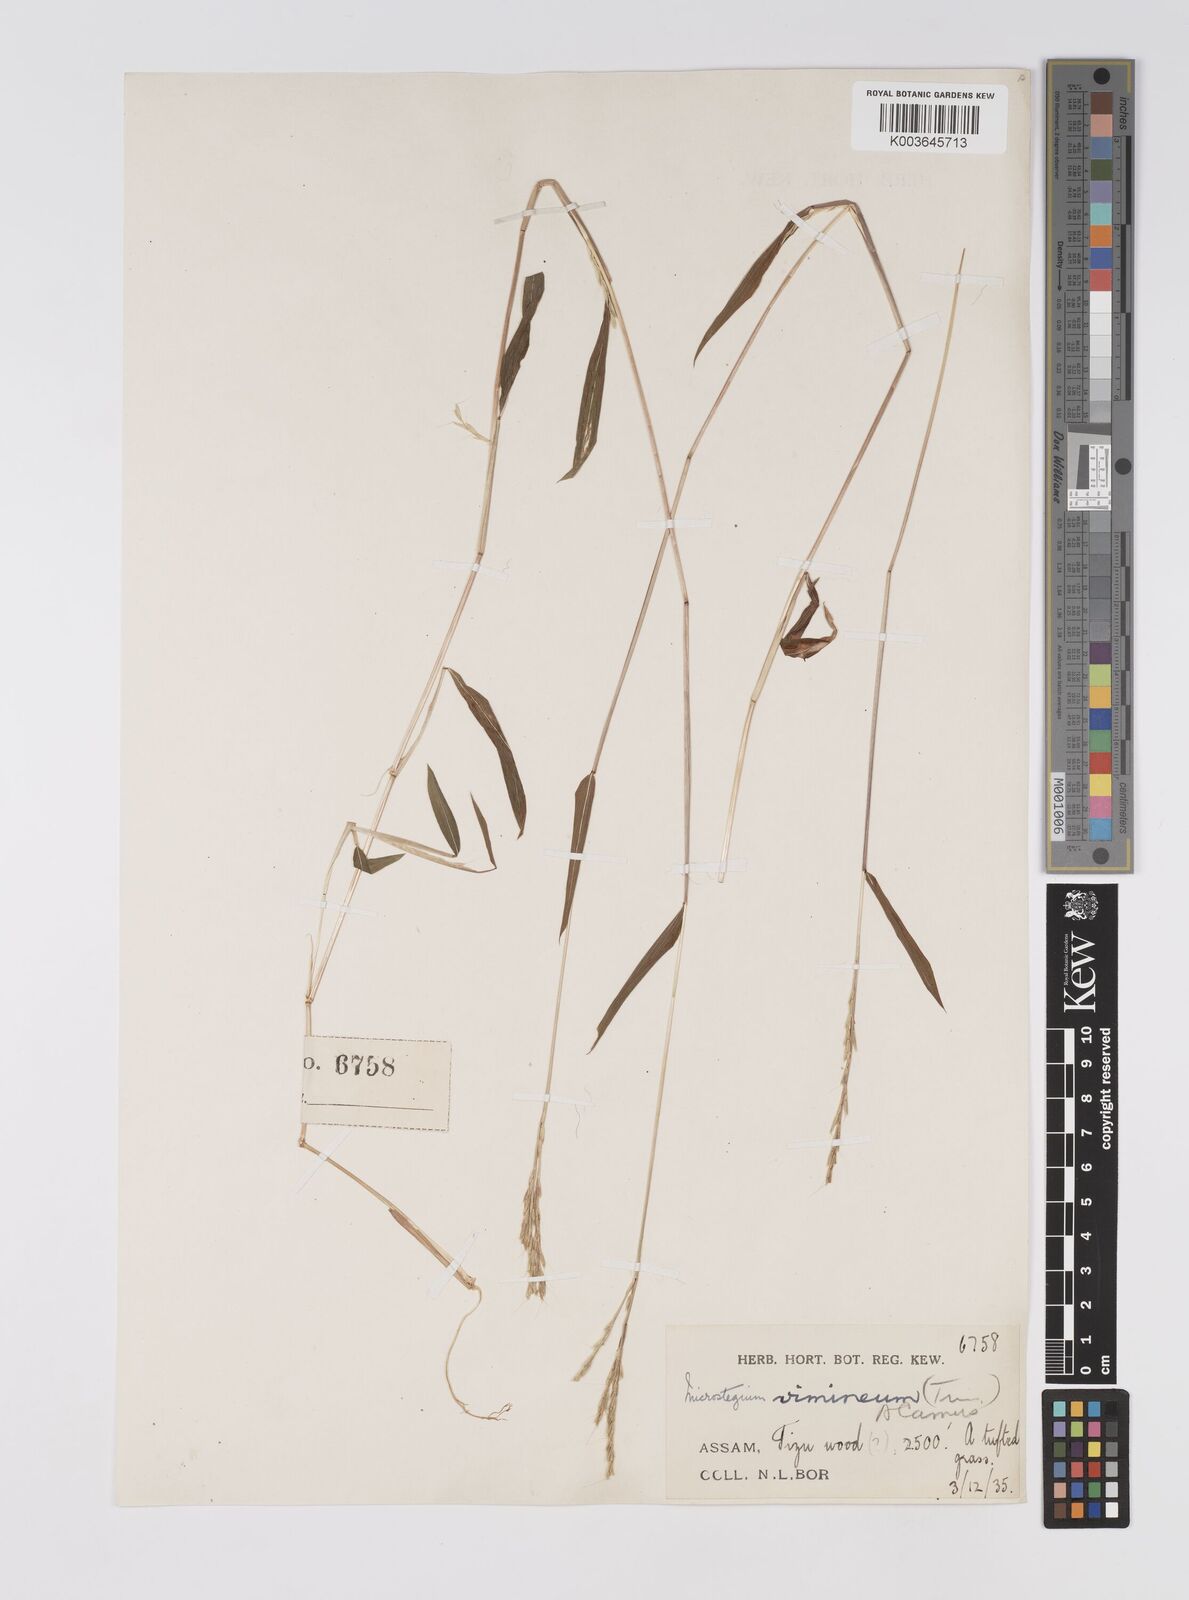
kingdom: Plantae
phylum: Tracheophyta
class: Liliopsida
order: Poales
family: Poaceae
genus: Microstegium
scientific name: Microstegium vimineum
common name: Japanese stiltgrass
